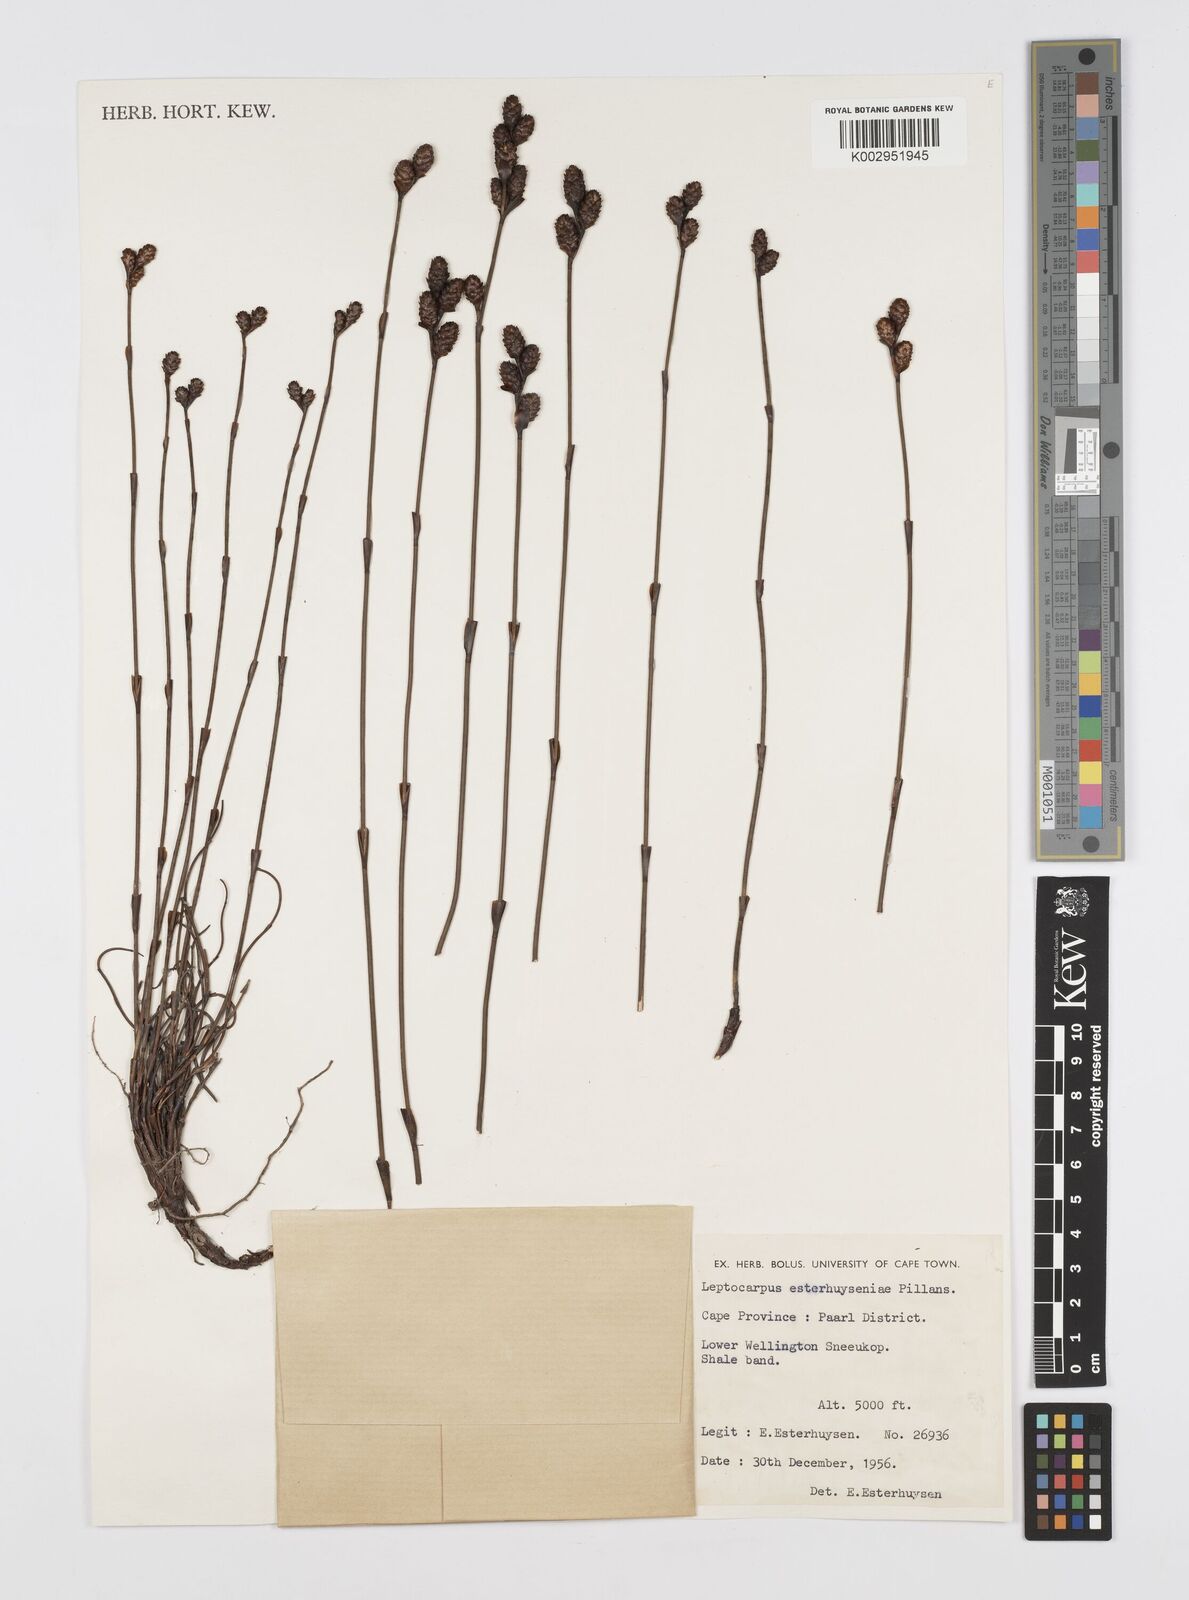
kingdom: Plantae
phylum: Tracheophyta
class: Liliopsida
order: Poales
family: Restionaceae
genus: Restio
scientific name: Restio esterhuyseniae
